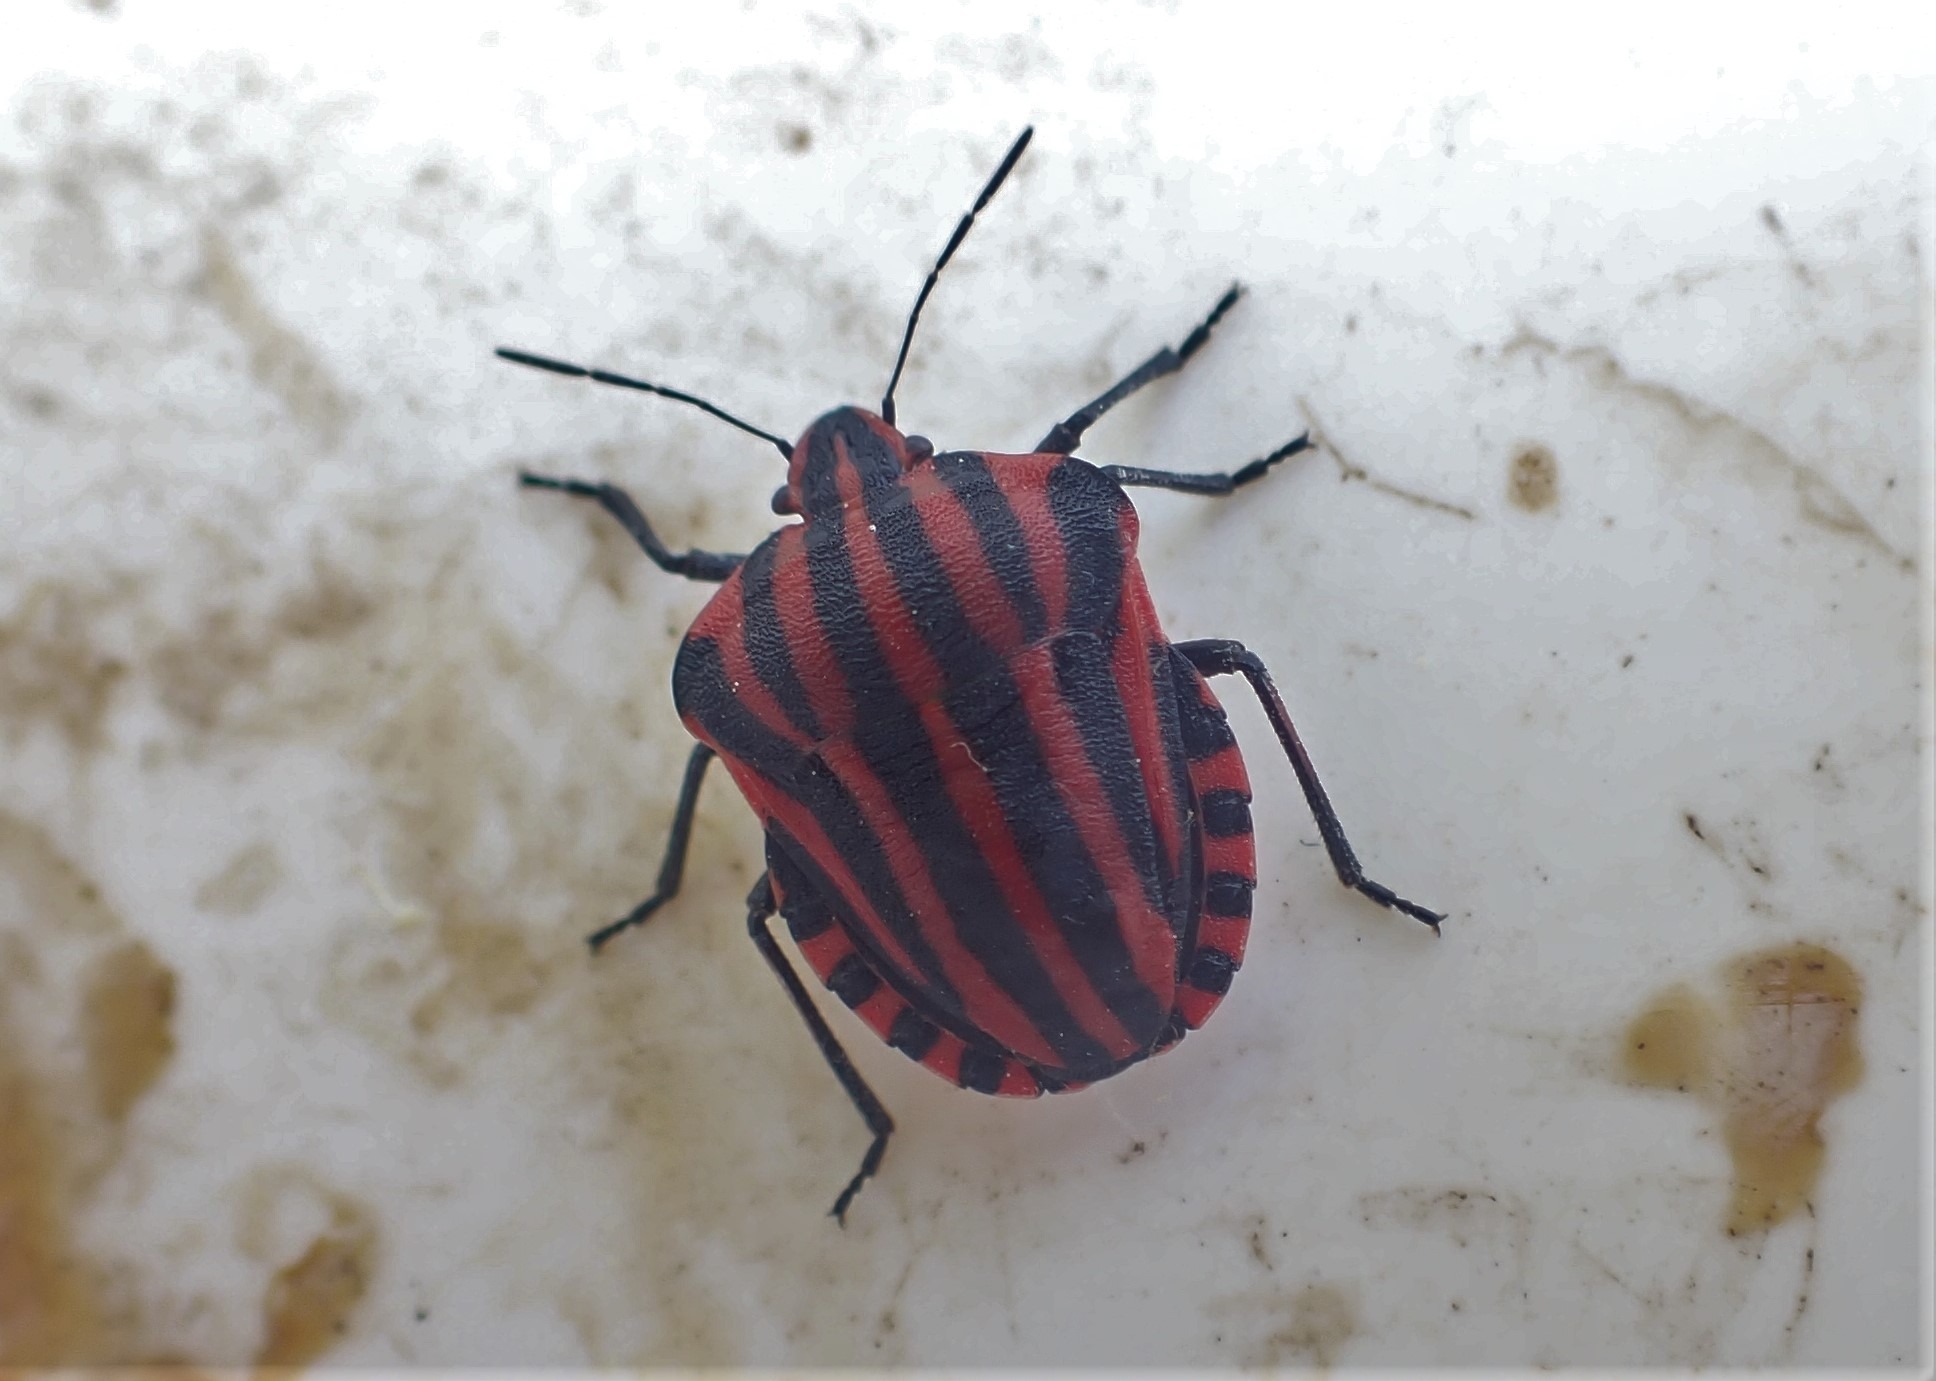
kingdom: Animalia
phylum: Arthropoda
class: Insecta
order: Hemiptera
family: Pentatomidae
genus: Graphosoma
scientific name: Graphosoma italicum
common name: Stribetæge
